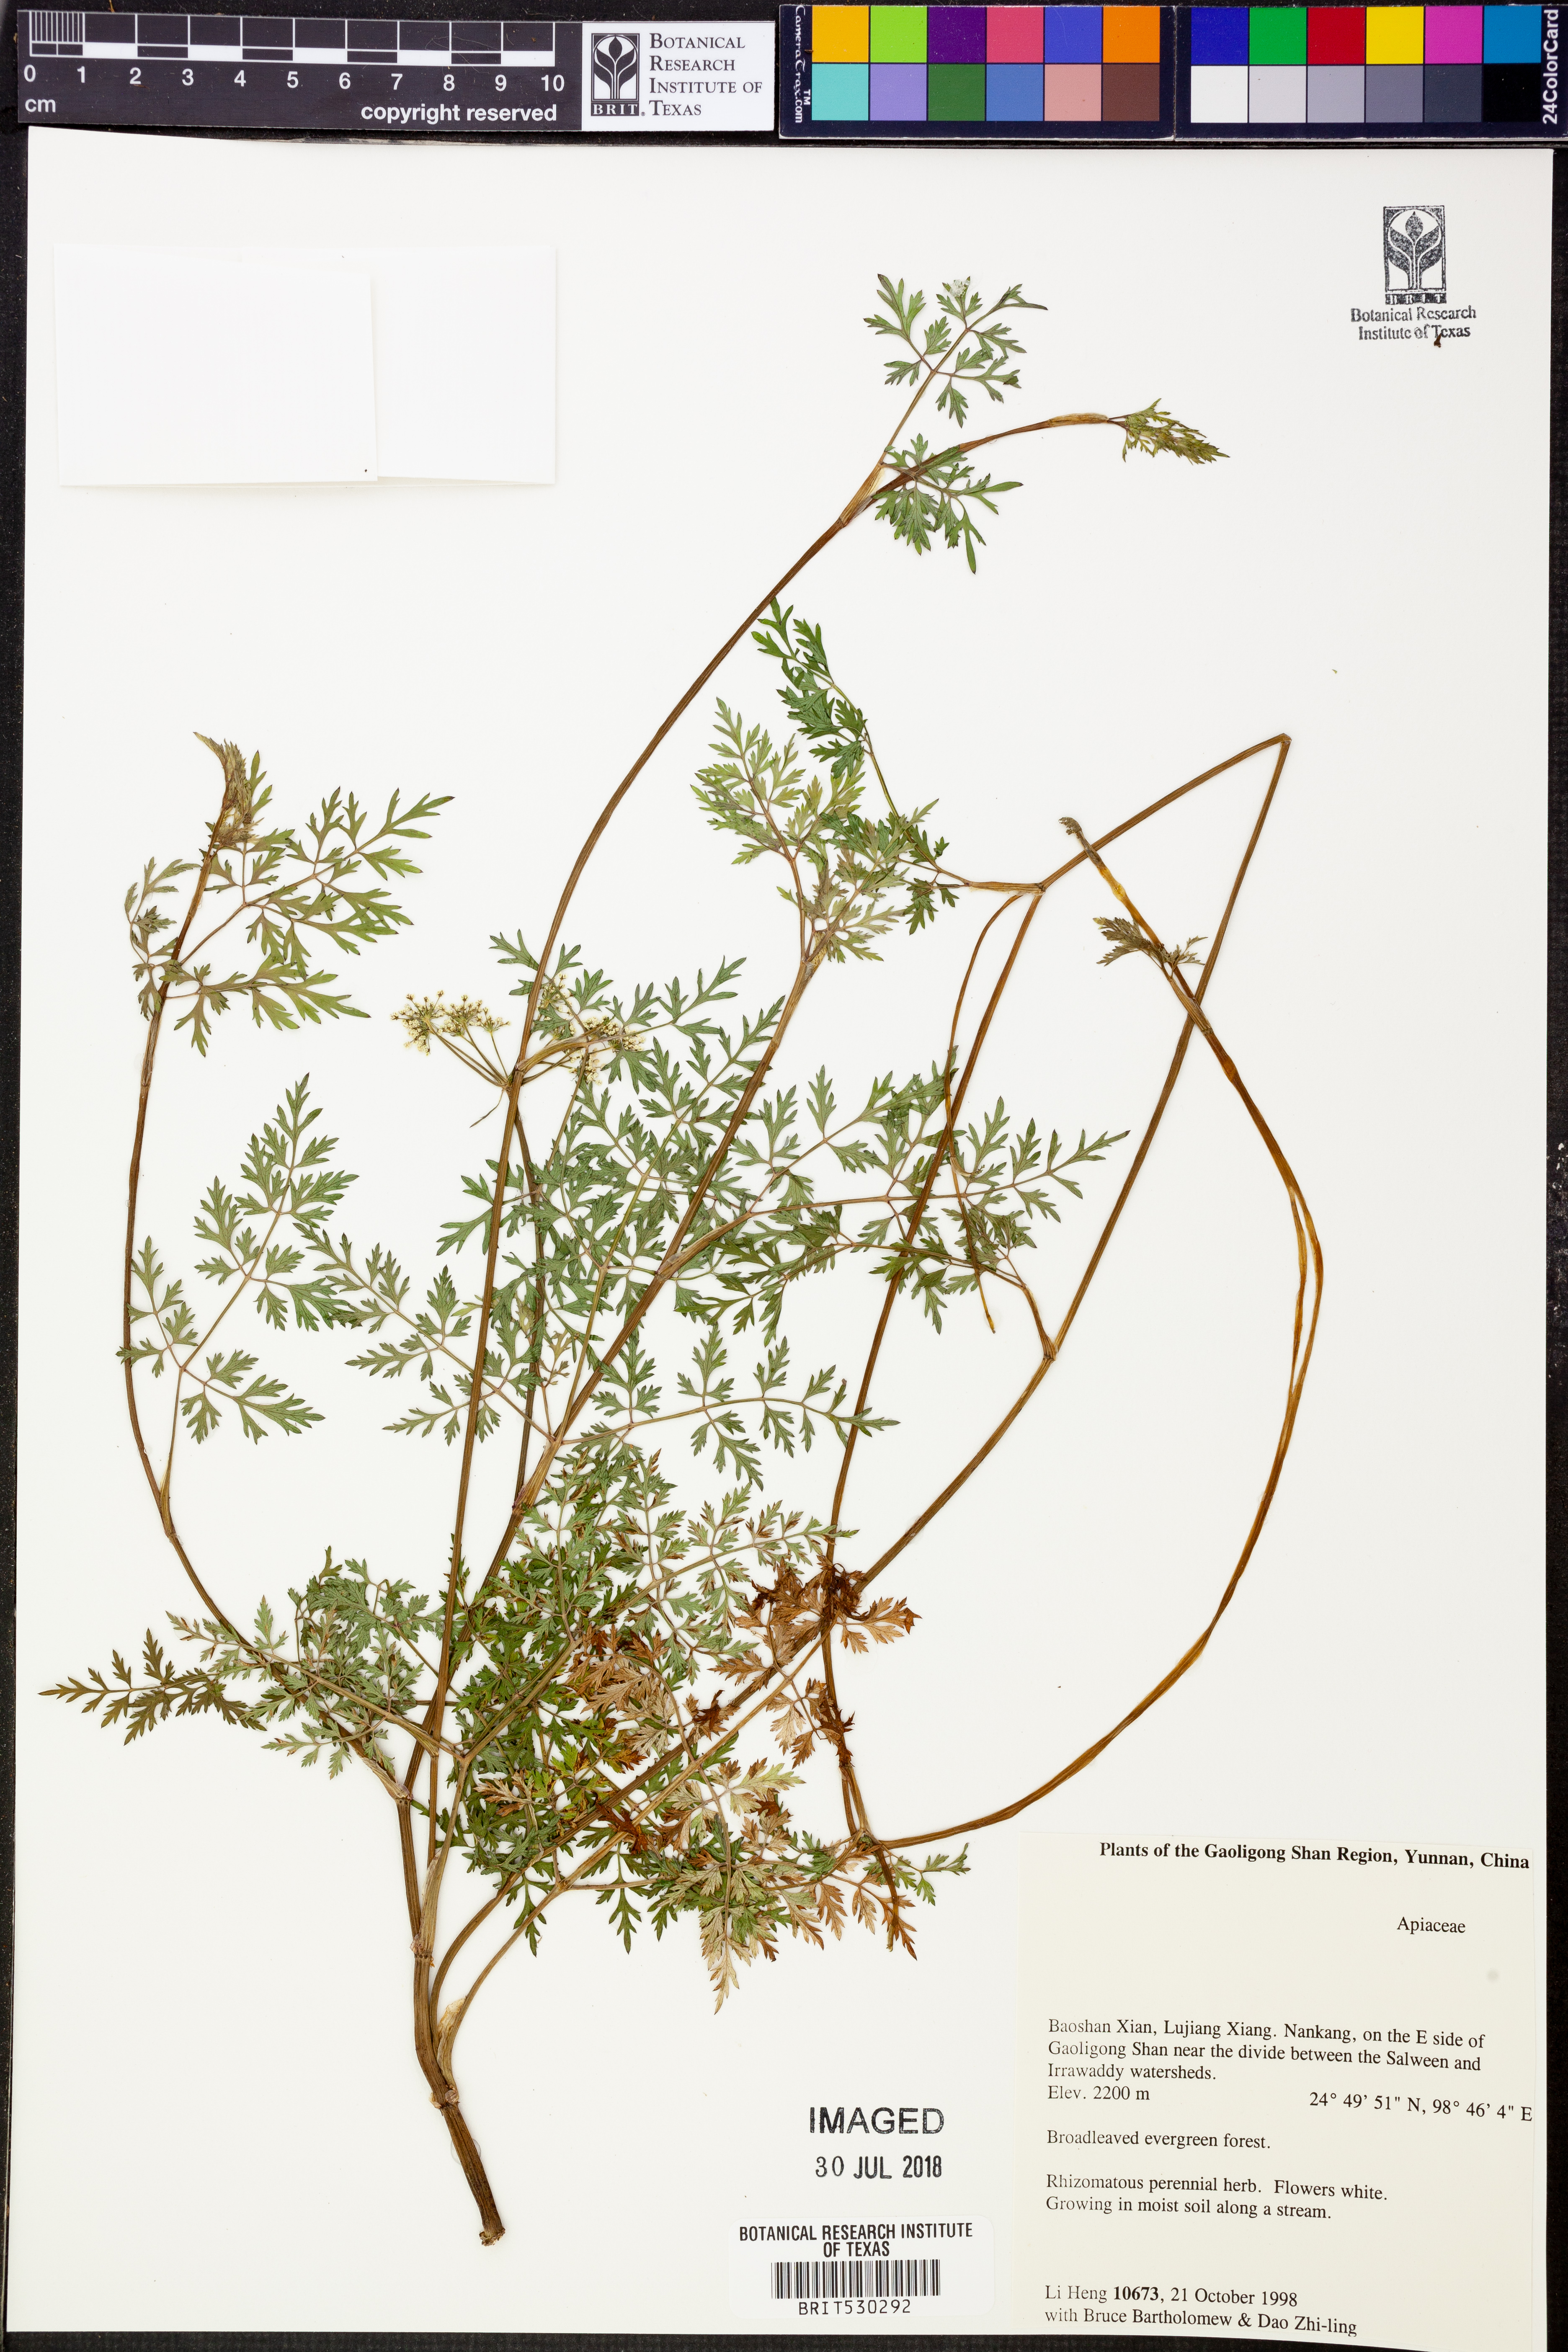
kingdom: Plantae
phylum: Tracheophyta
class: Magnoliopsida
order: Apiales
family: Apiaceae
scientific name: Apiaceae
